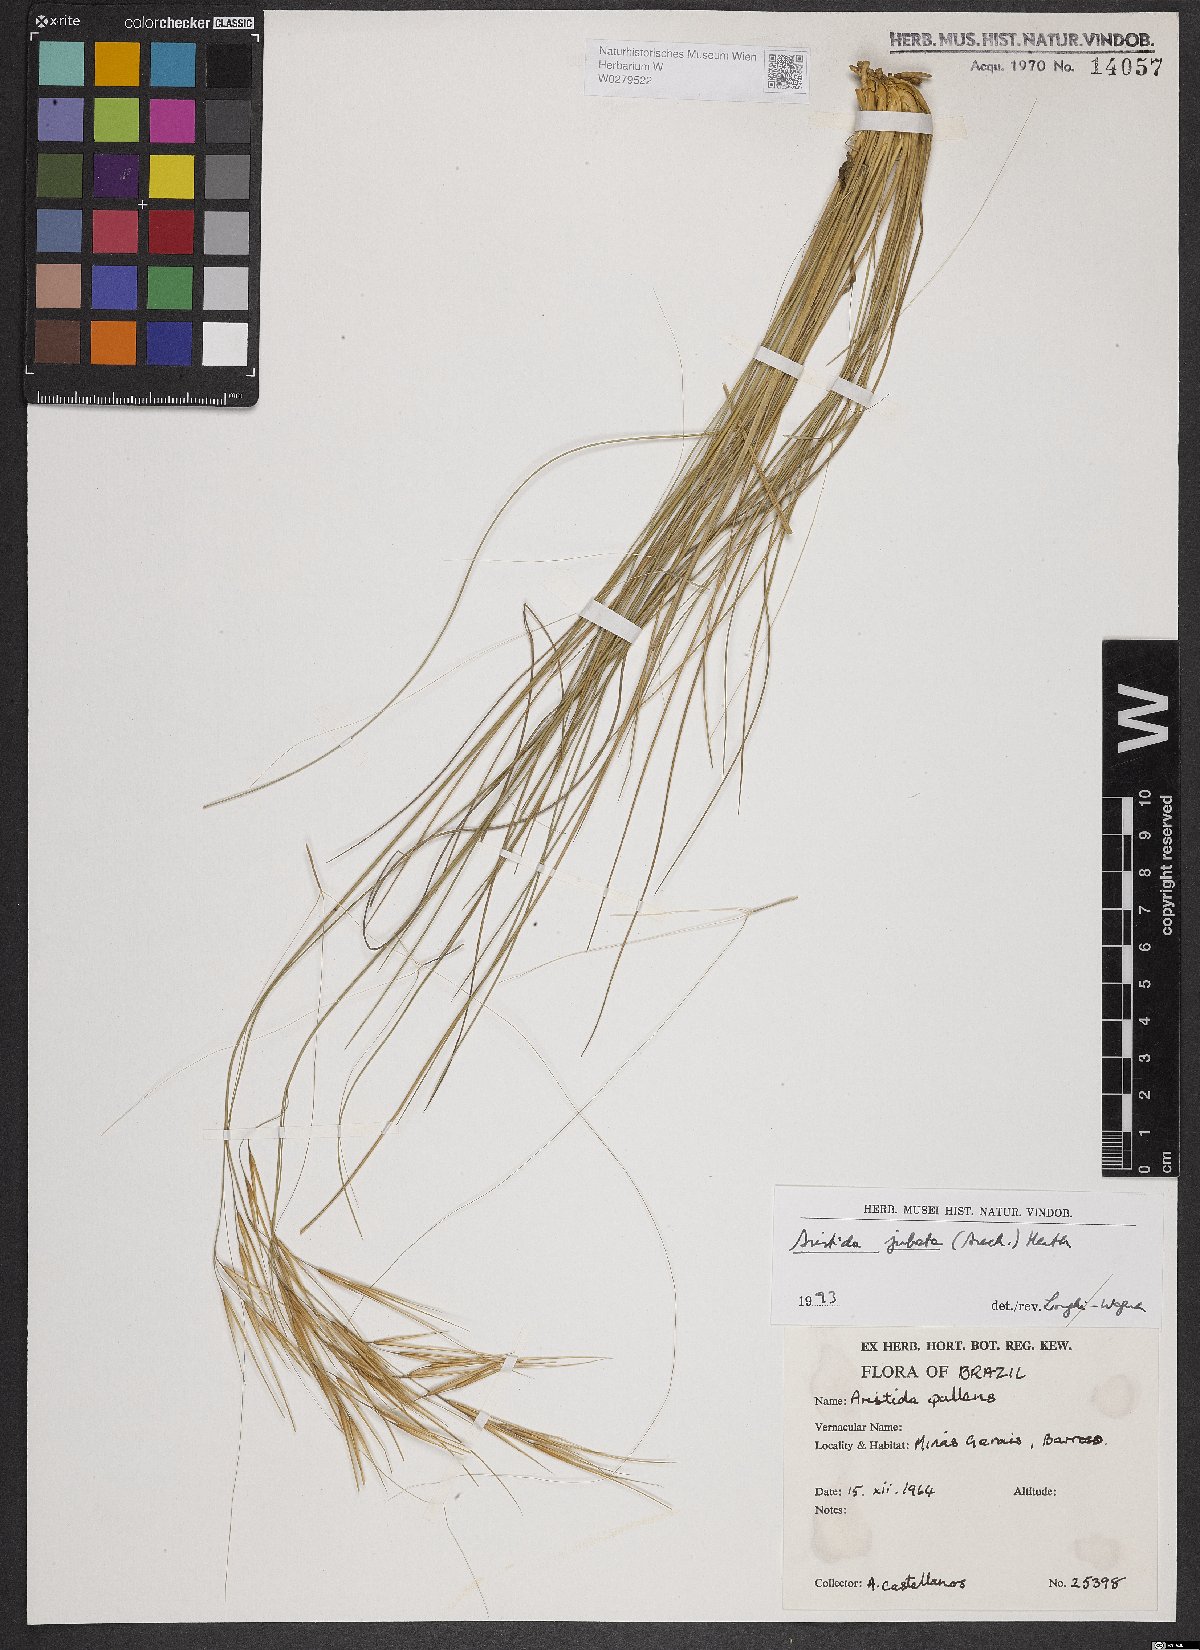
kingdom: Plantae
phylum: Tracheophyta
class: Liliopsida
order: Poales
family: Poaceae
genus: Aristida
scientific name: Aristida jubata
